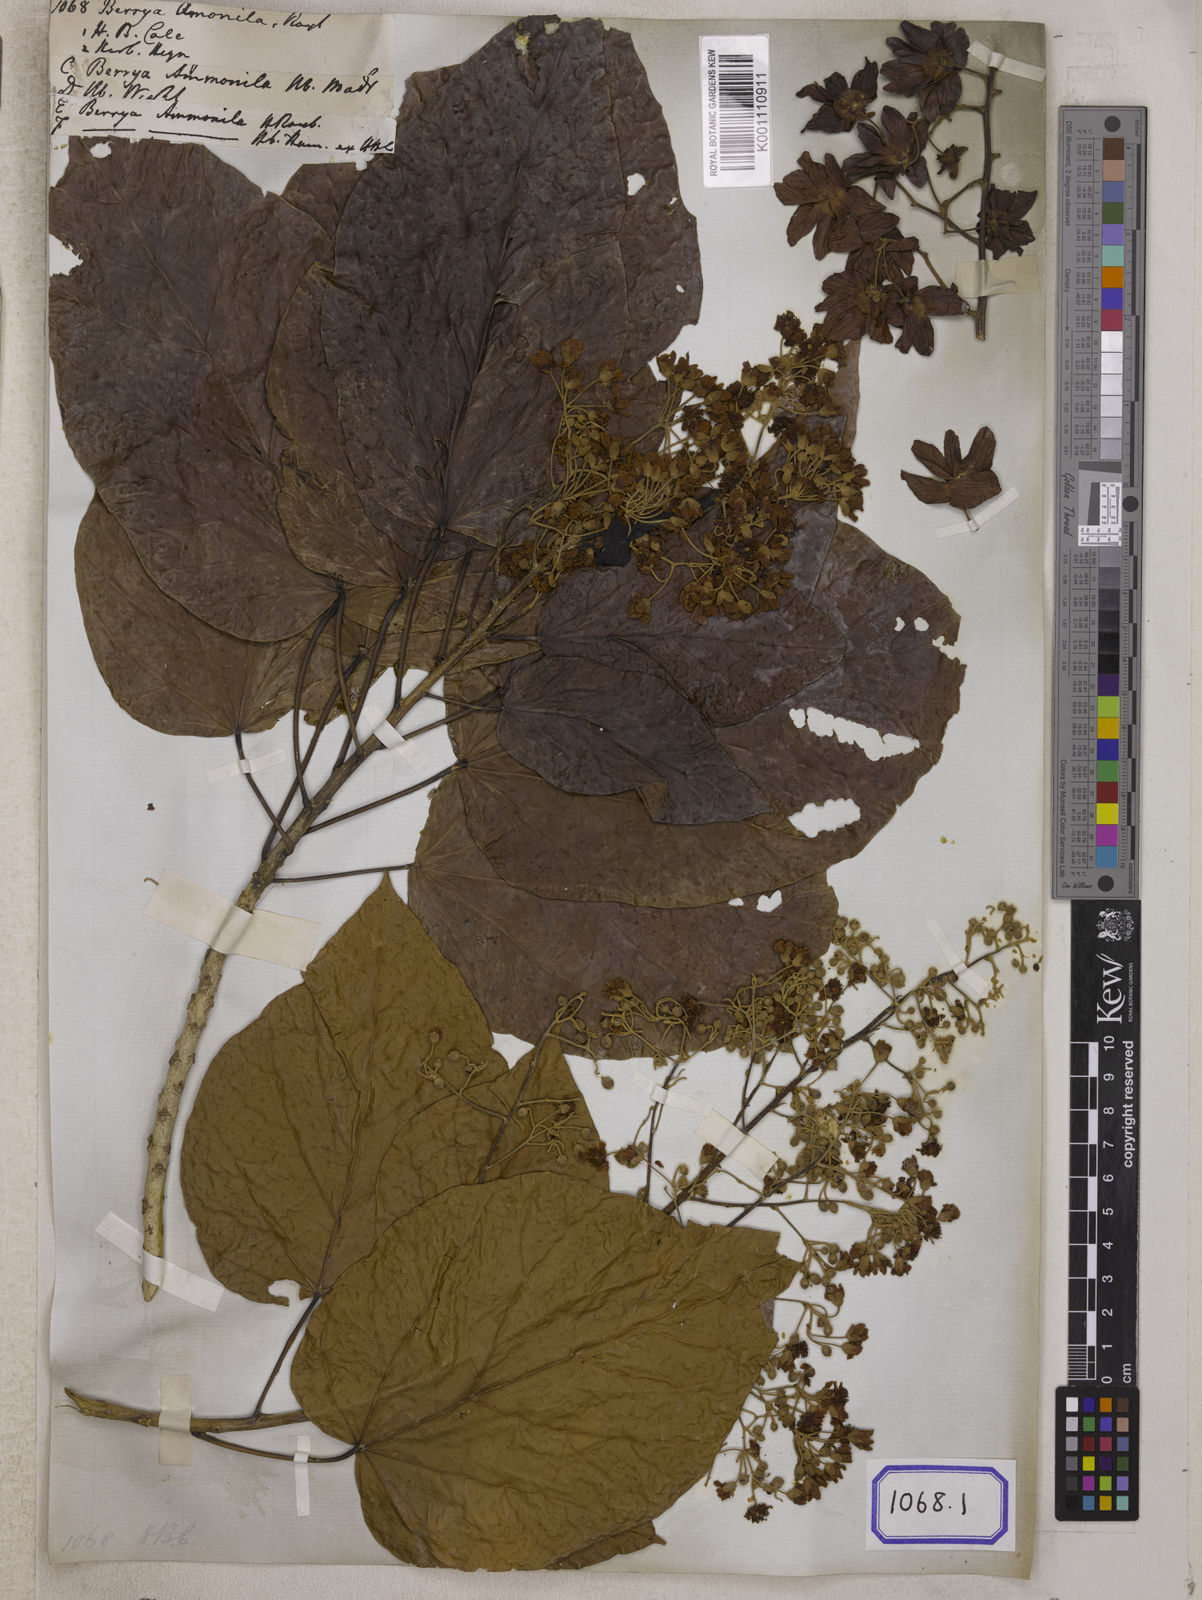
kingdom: Plantae
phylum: Tracheophyta
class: Magnoliopsida
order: Malvales
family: Malvaceae
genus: Berrya
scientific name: Berrya cordifolia
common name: Trincomalee
